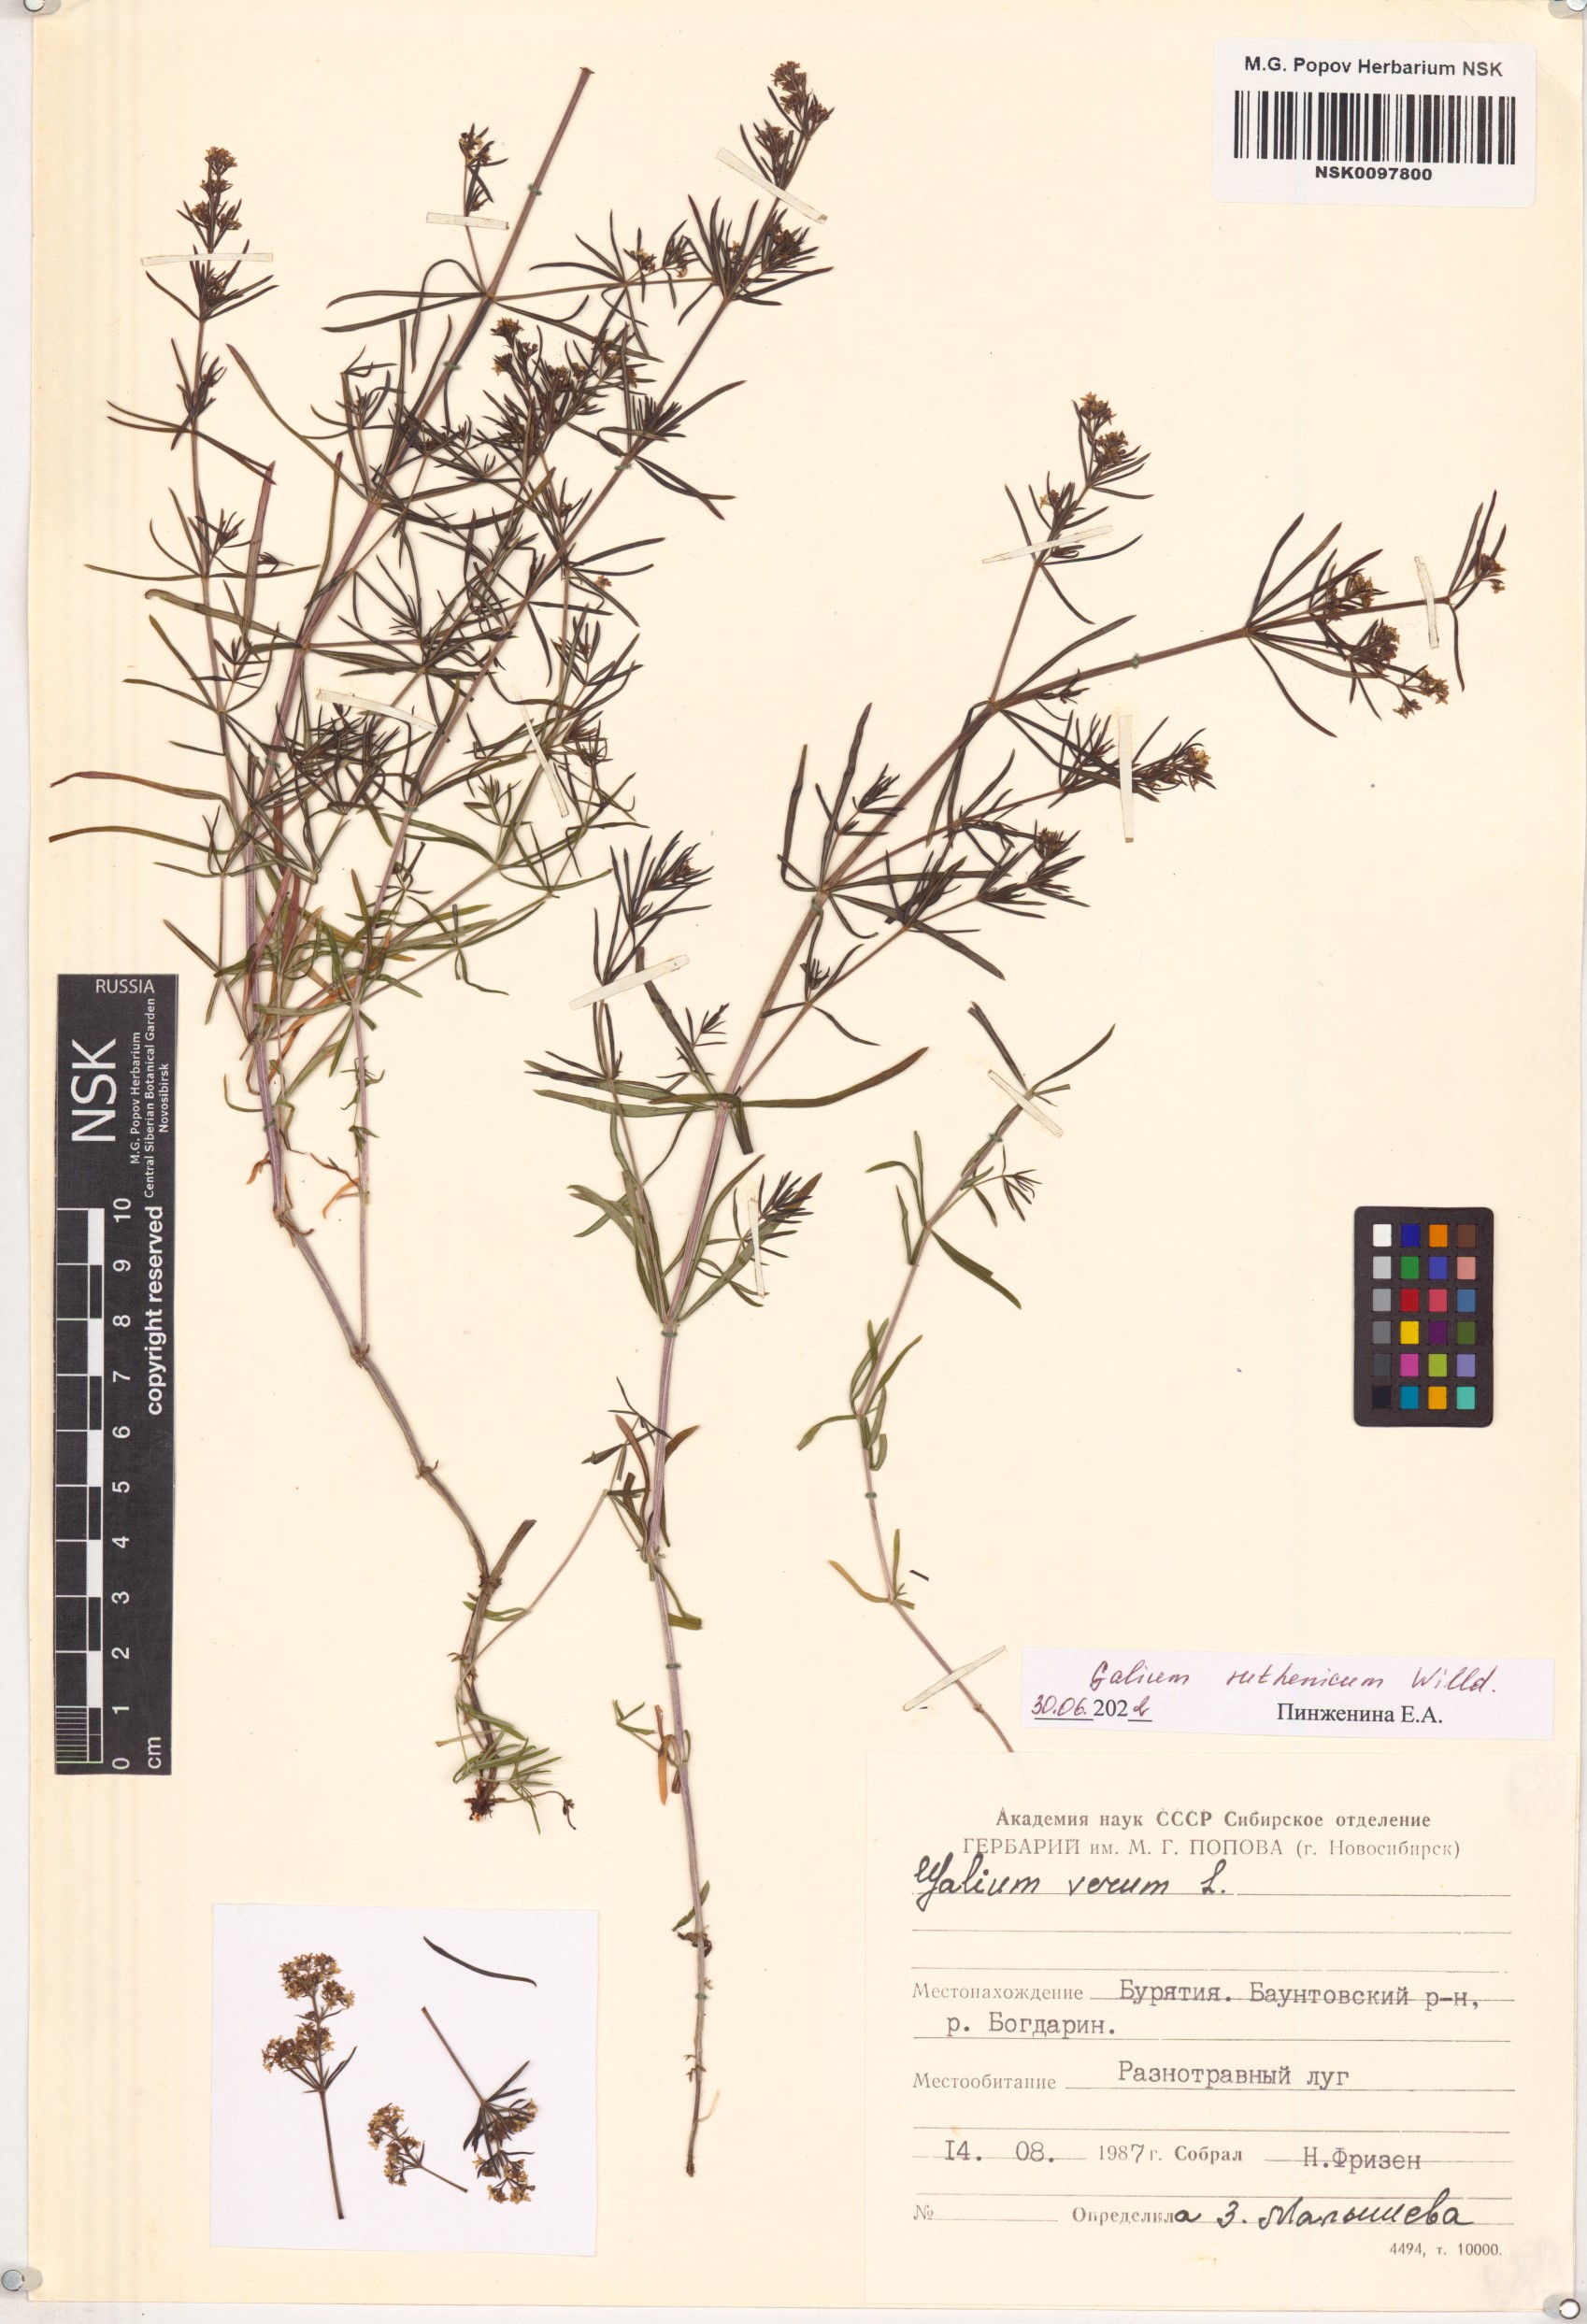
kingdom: Plantae
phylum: Tracheophyta
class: Magnoliopsida
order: Gentianales
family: Rubiaceae
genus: Galium
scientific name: Galium verum
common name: Lady's bedstraw
